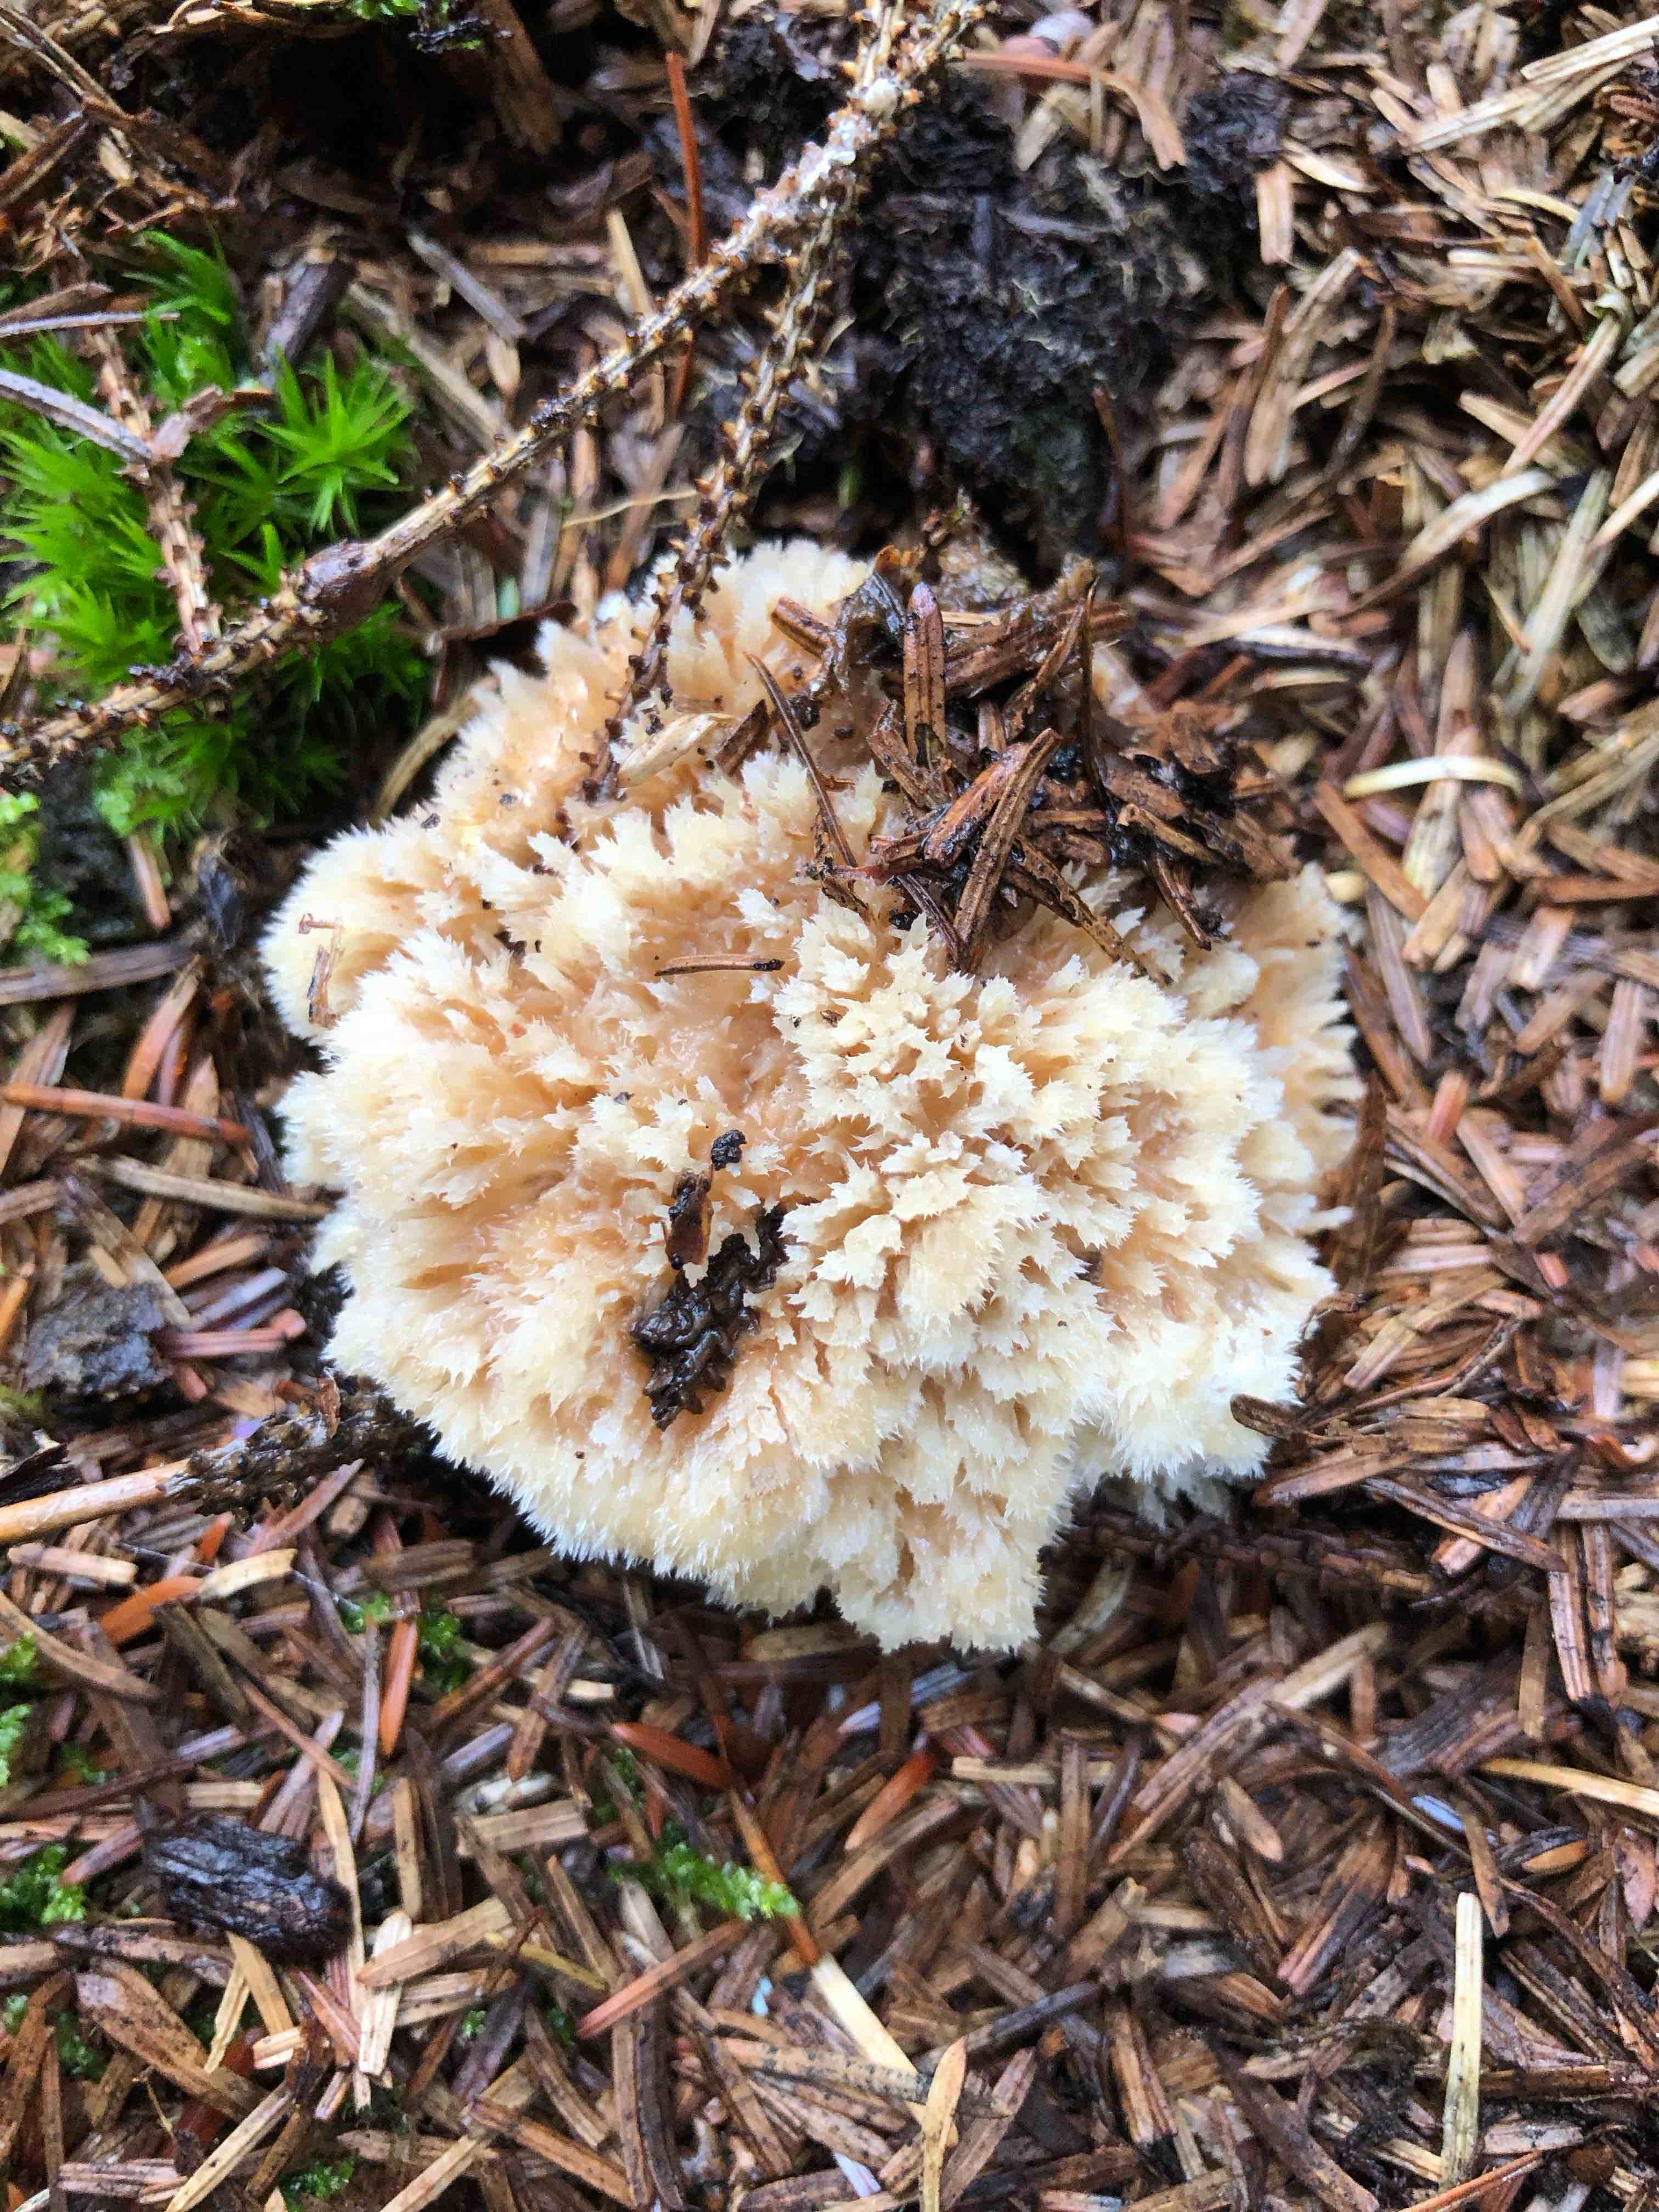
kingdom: Fungi
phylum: Basidiomycota
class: Agaricomycetes
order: Polyporales
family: Dacryobolaceae
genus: Postia
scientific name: Postia ptychogaster
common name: støvende kødporesvamp
